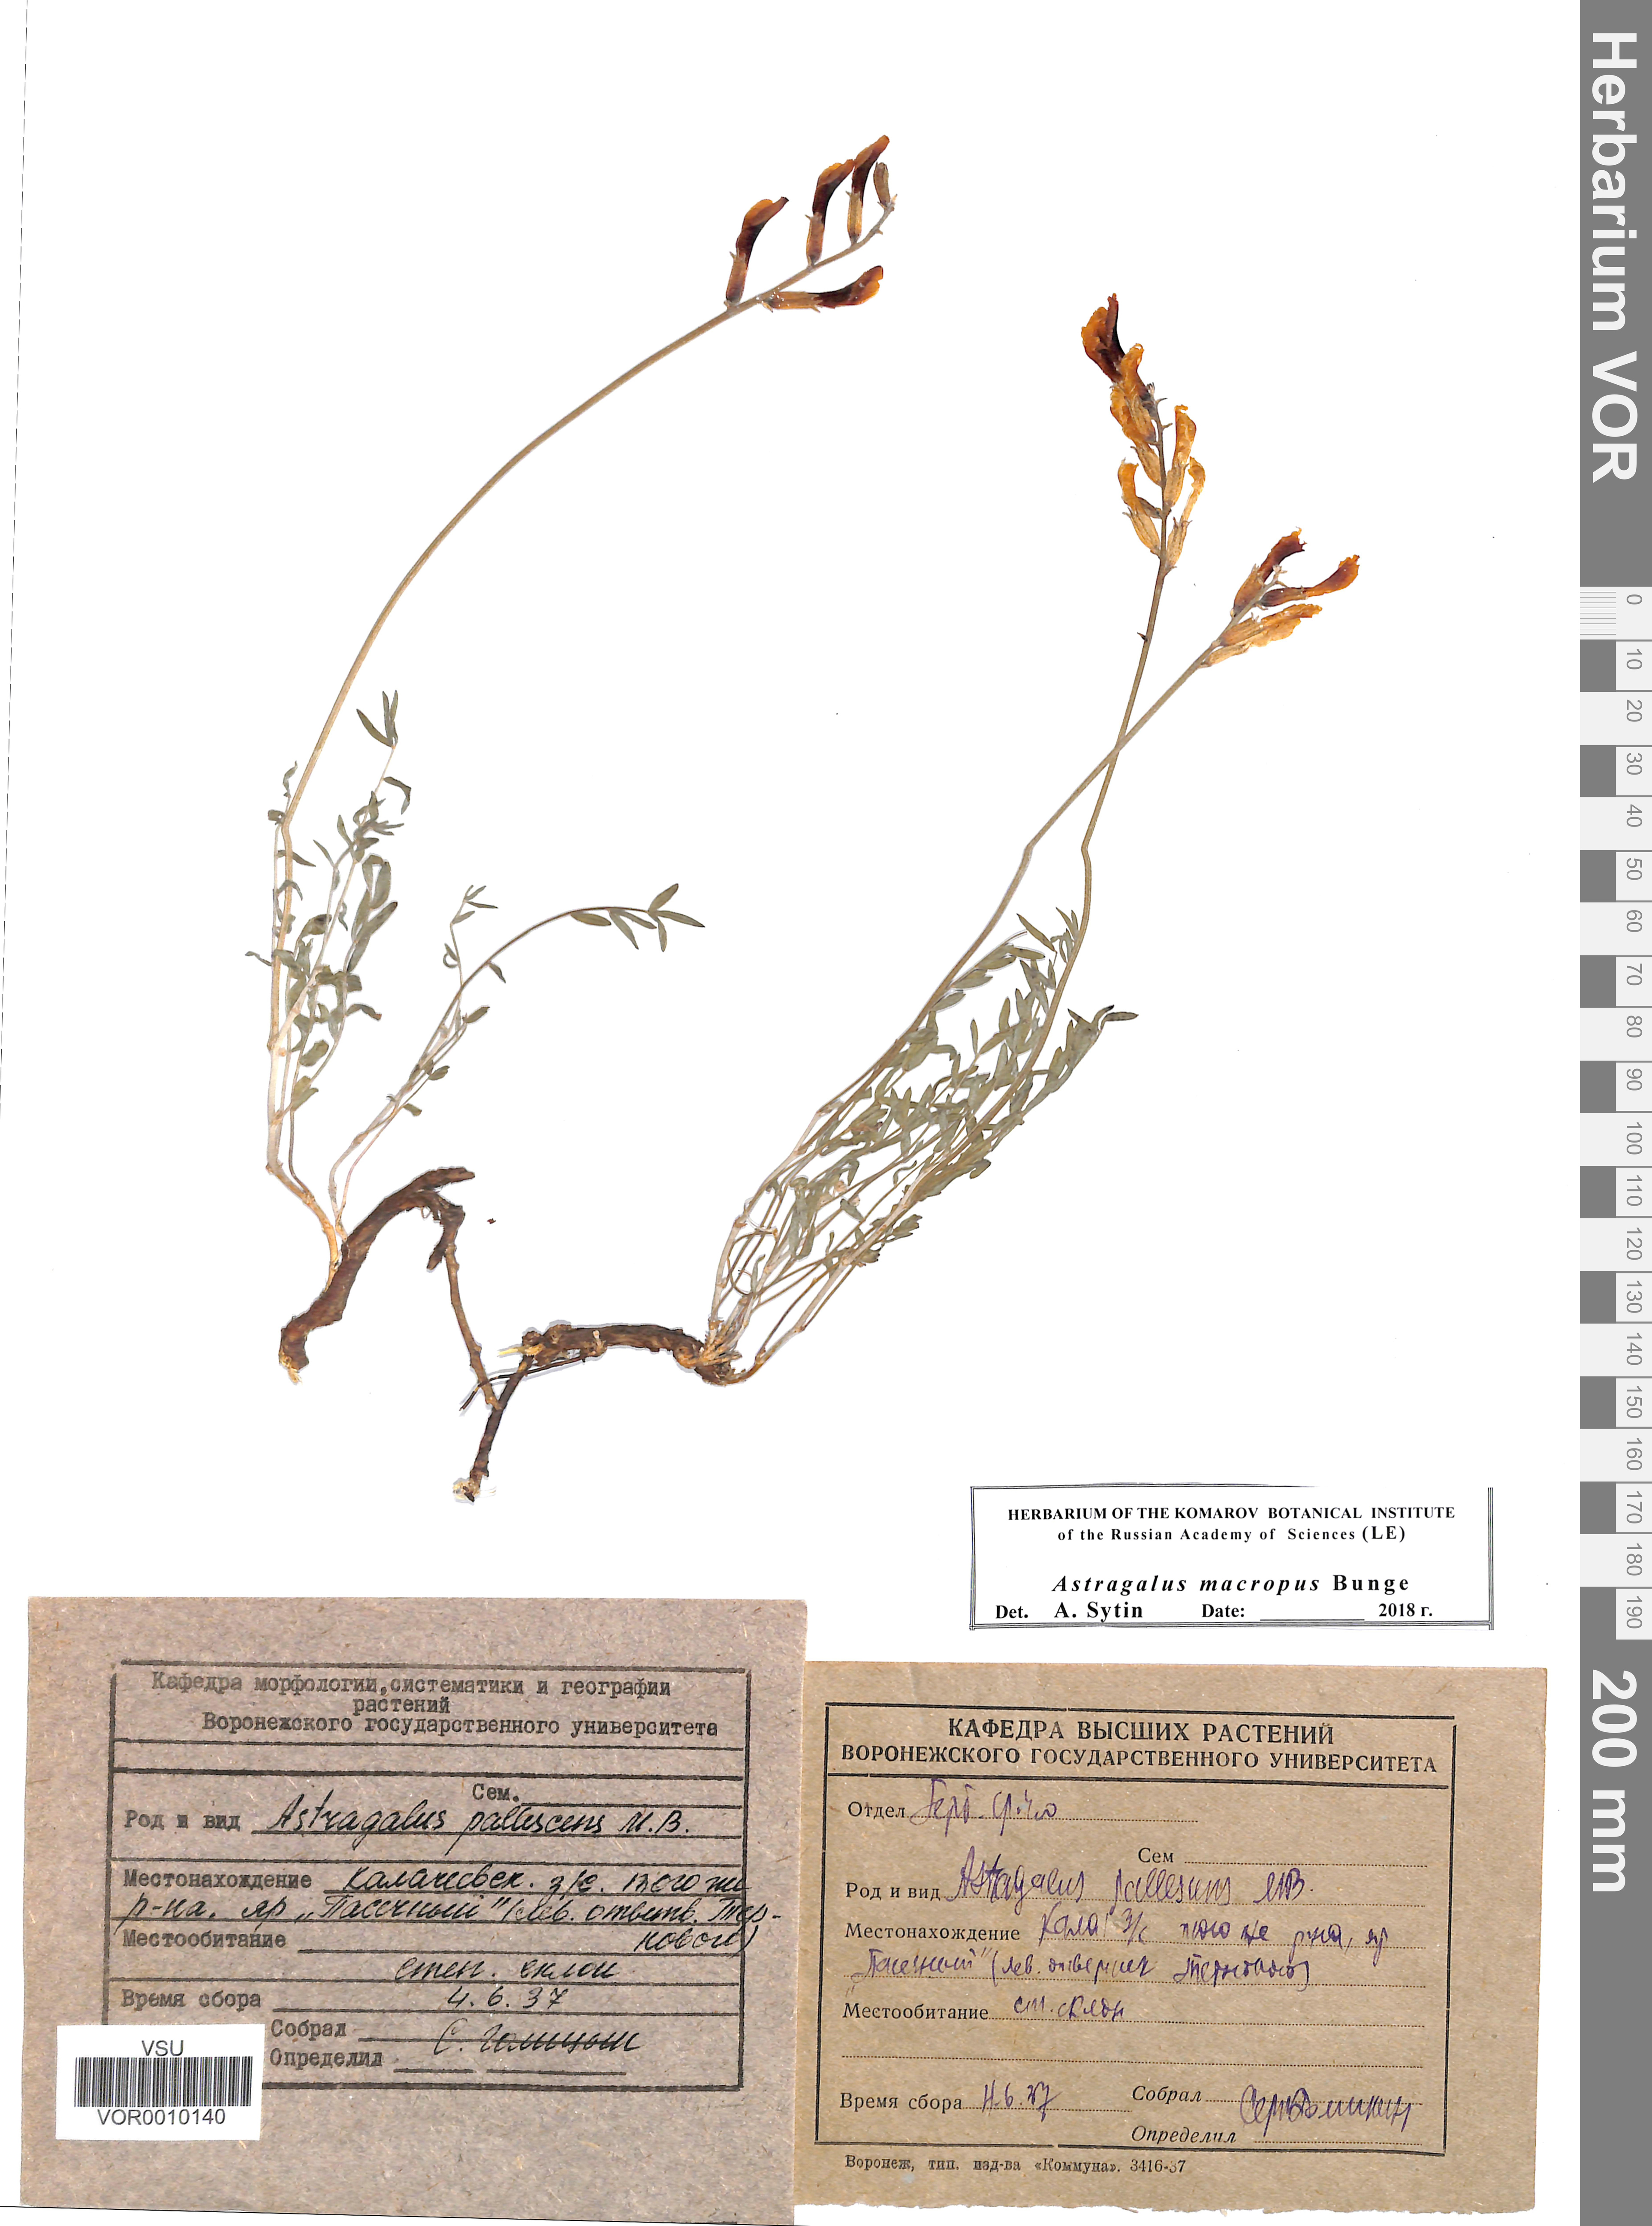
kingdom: Plantae
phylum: Tracheophyta
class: Magnoliopsida
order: Fabales
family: Fabaceae
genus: Astragalus
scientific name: Astragalus macropus
